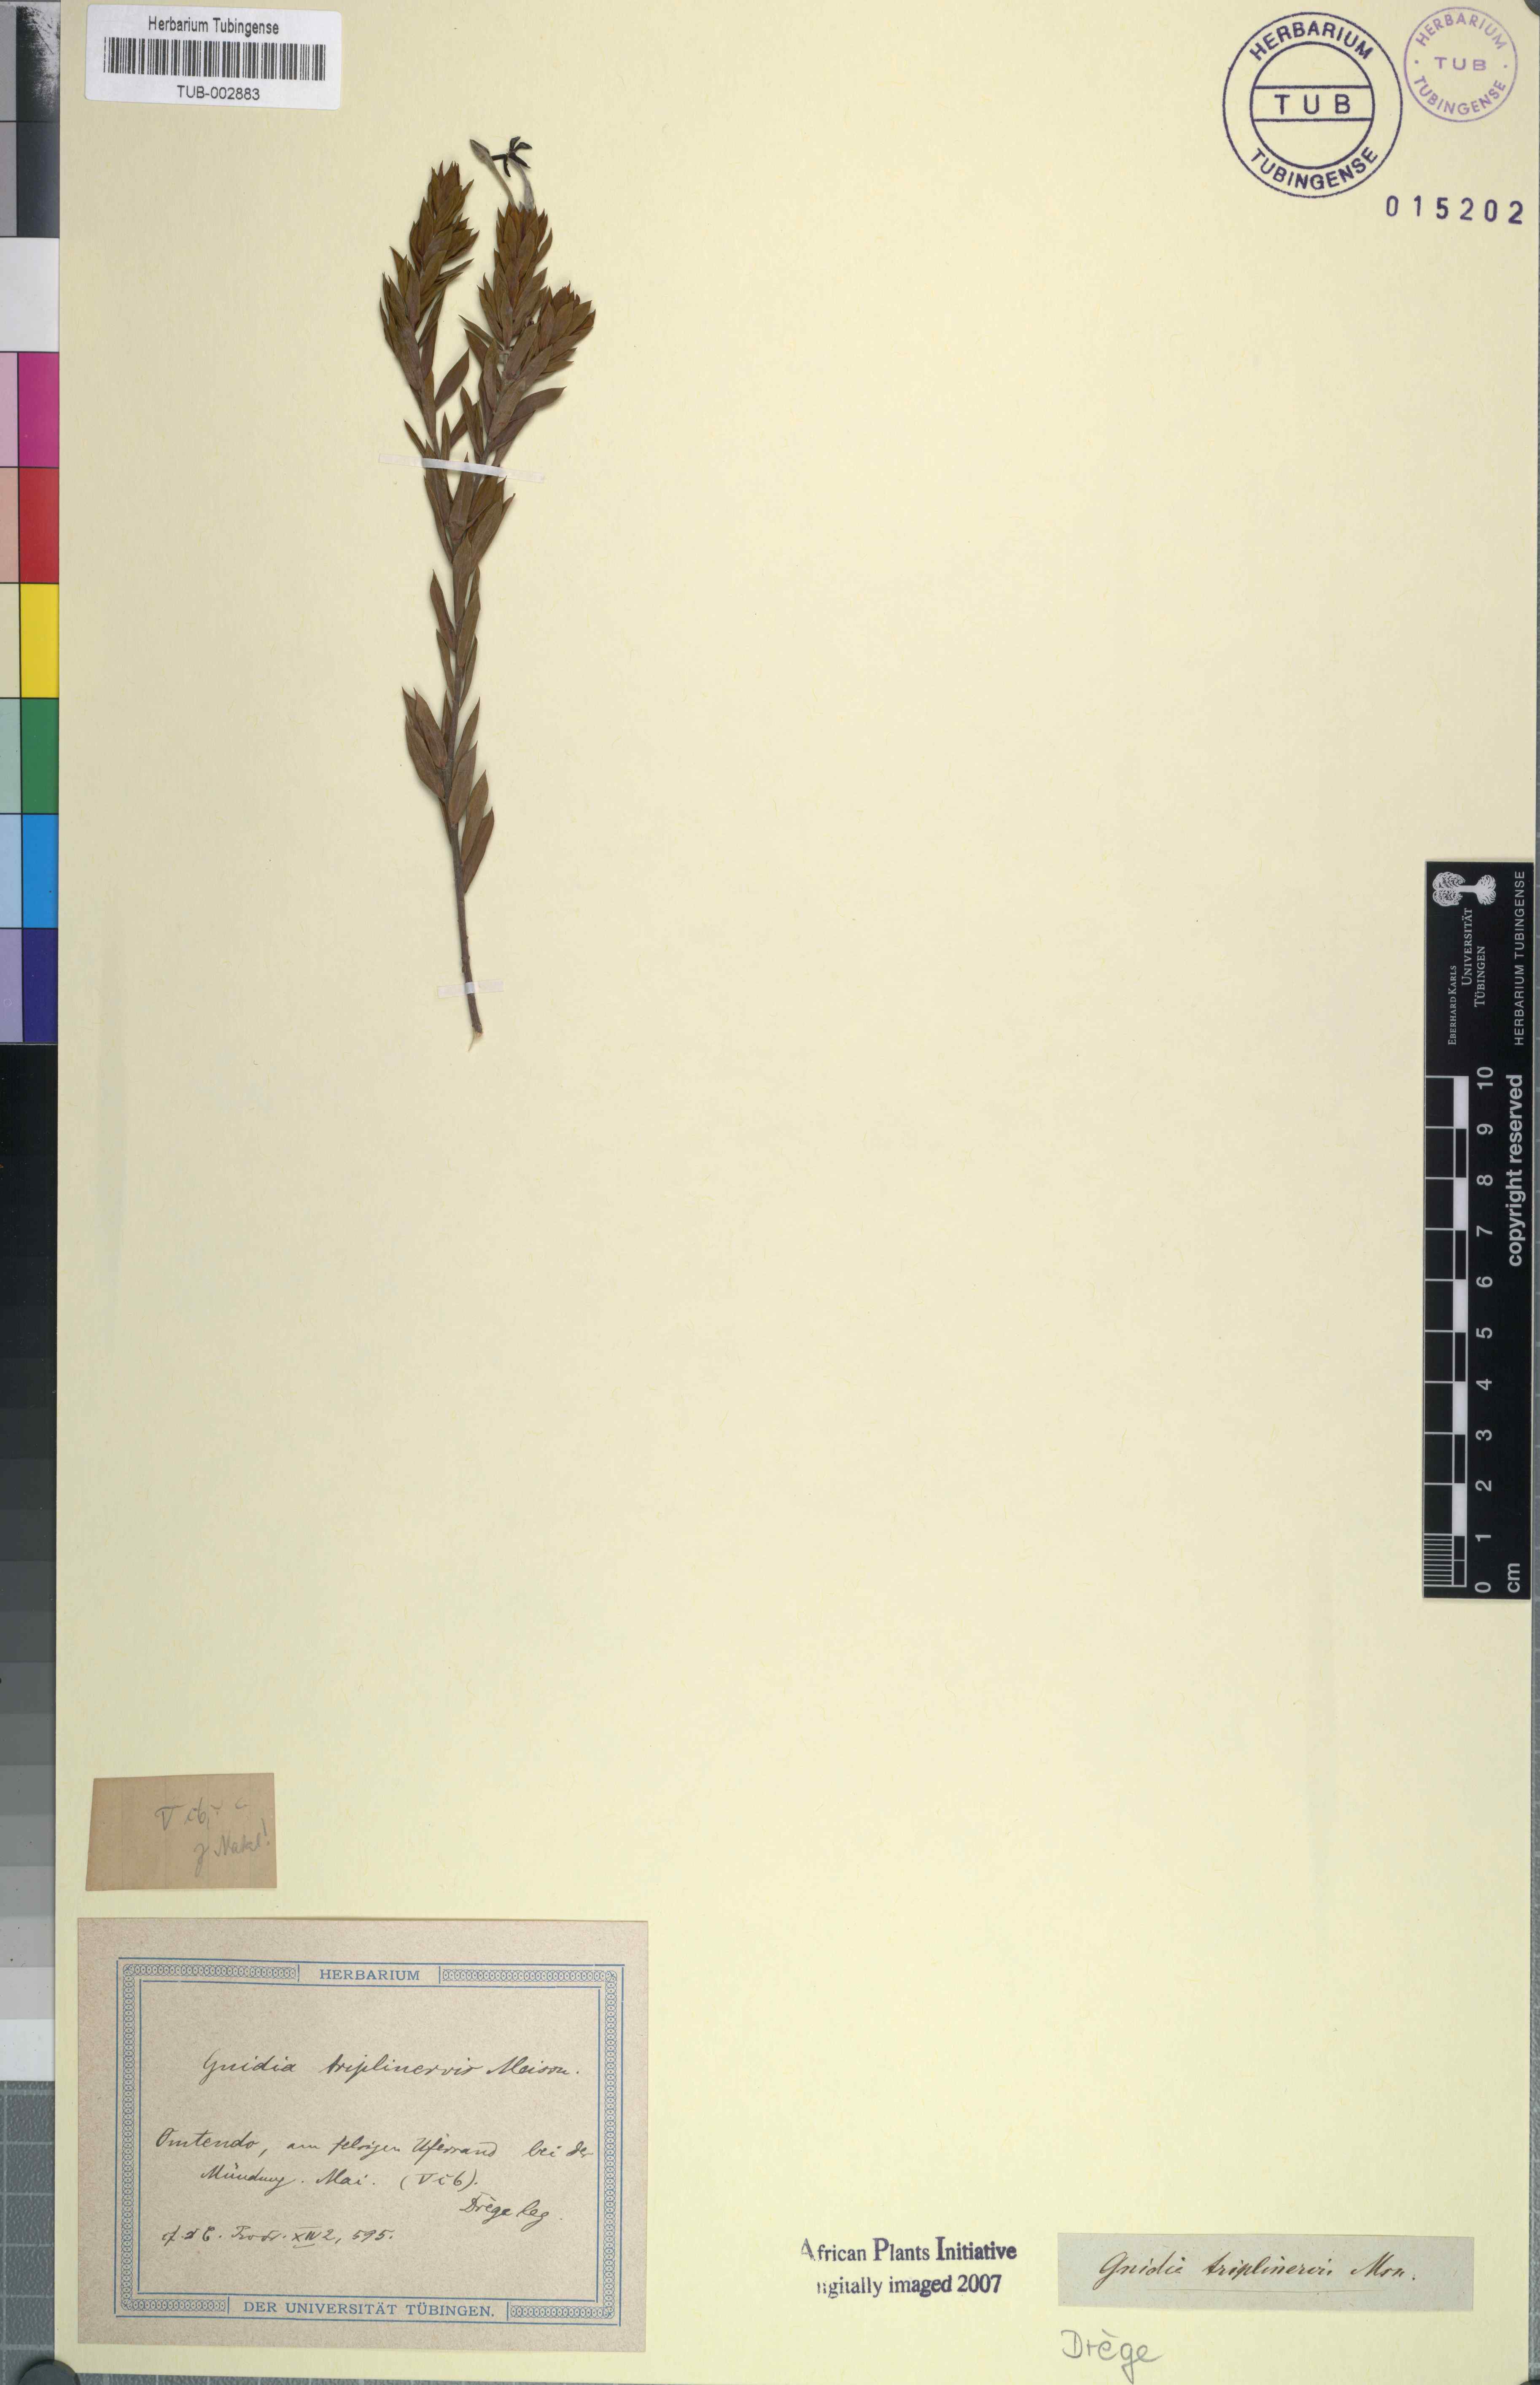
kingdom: Plantae
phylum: Tracheophyta
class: Magnoliopsida
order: Malvales
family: Thymelaeaceae
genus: Gnidia
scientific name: Gnidia triplinervis
